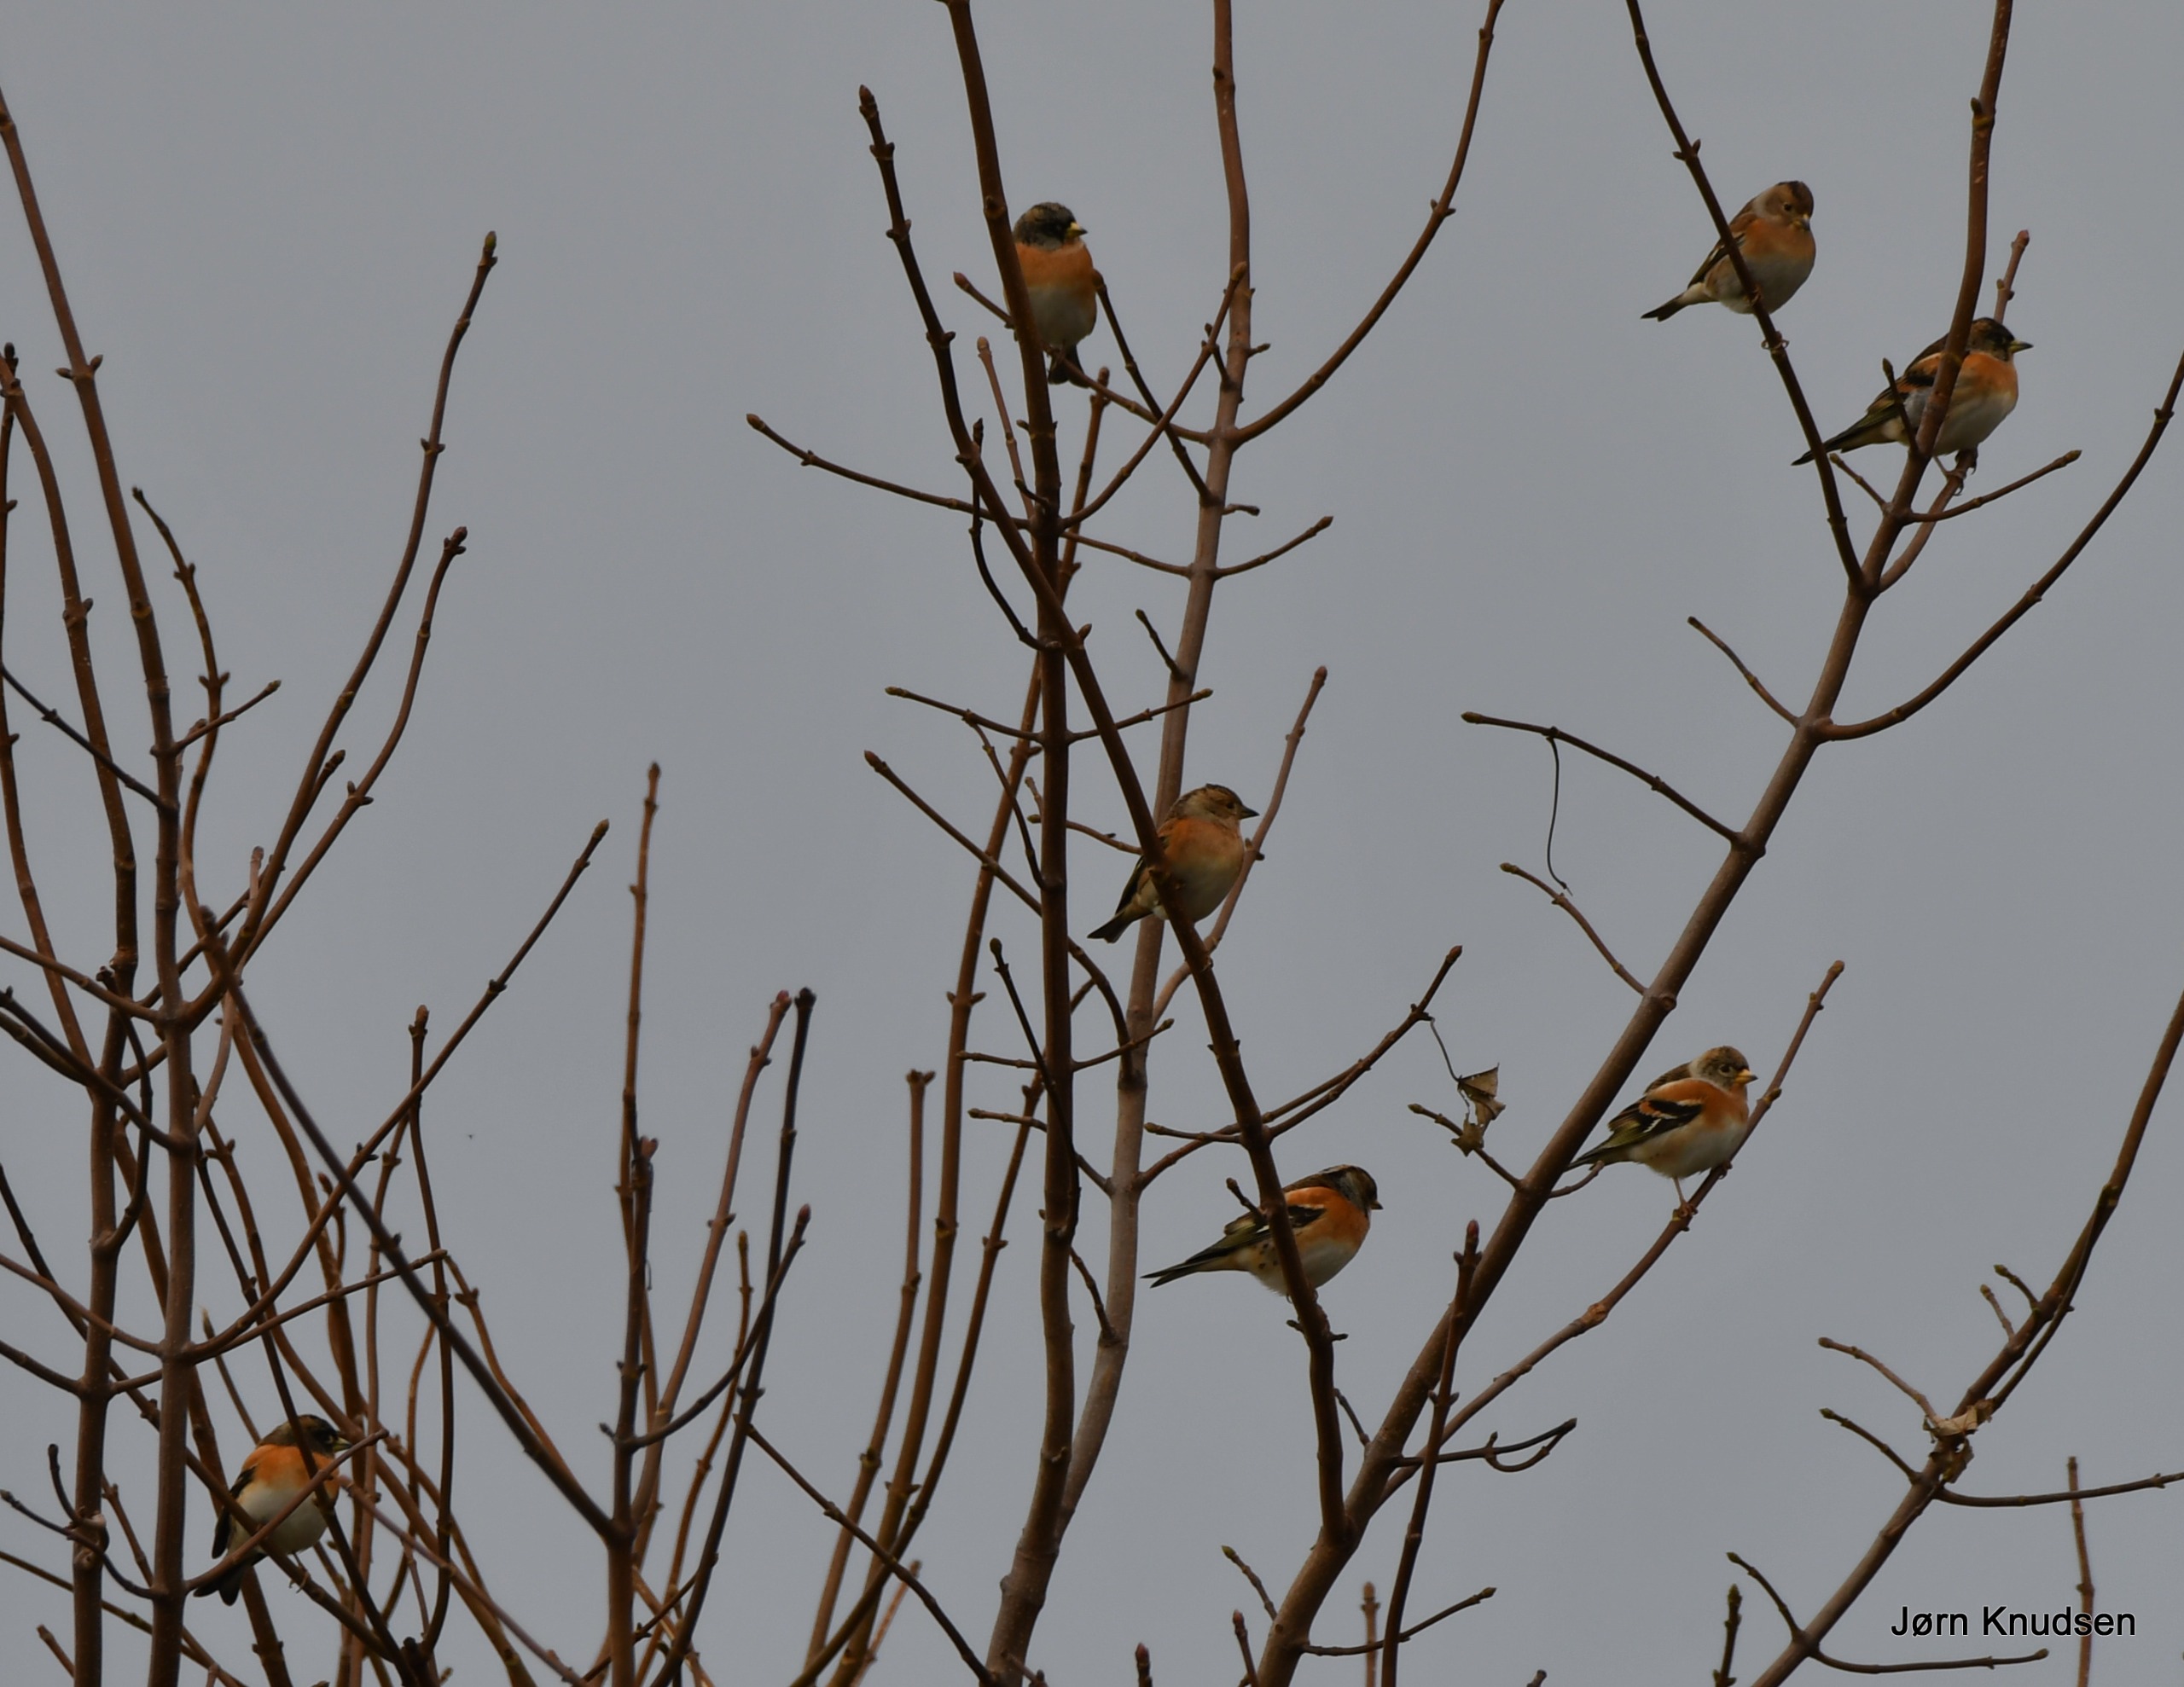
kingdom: Animalia
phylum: Chordata
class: Aves
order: Passeriformes
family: Fringillidae
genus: Fringilla
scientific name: Fringilla montifringilla
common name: Kvækerfinke
